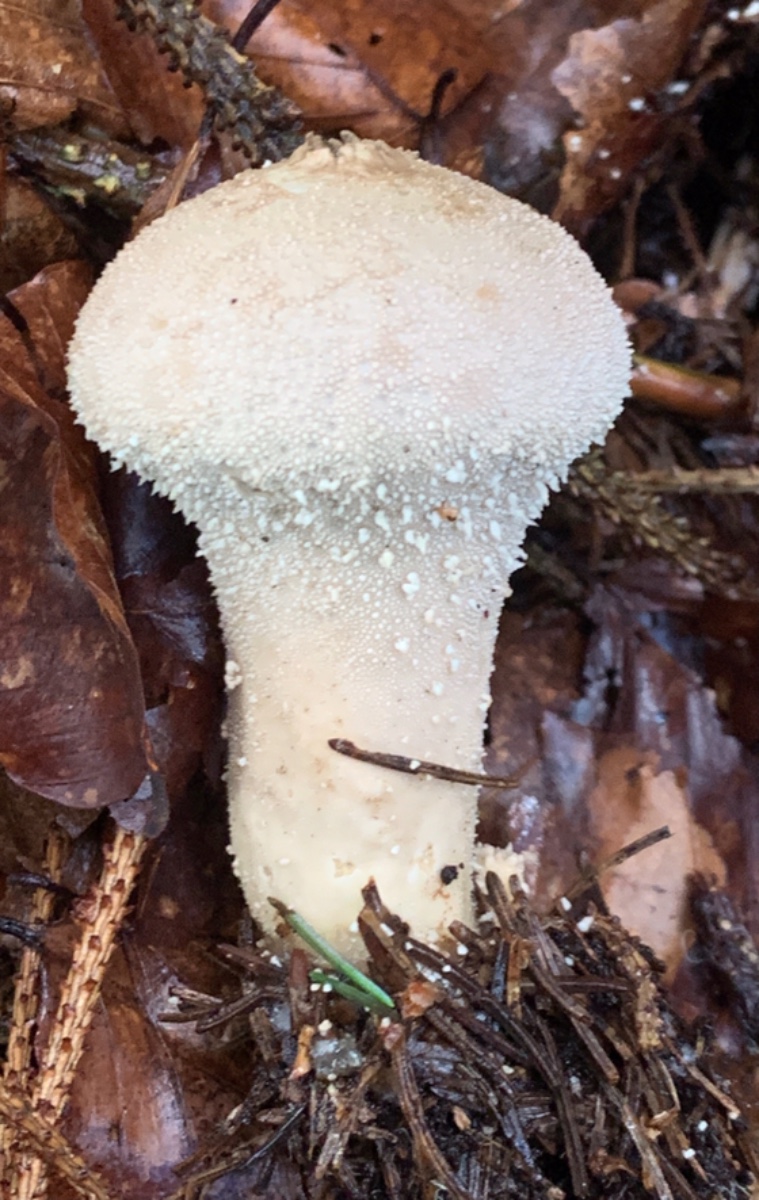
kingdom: Fungi
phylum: Basidiomycota
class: Agaricomycetes
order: Agaricales
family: Lycoperdaceae
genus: Lycoperdon
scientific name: Lycoperdon perlatum
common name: krystal-støvbold
